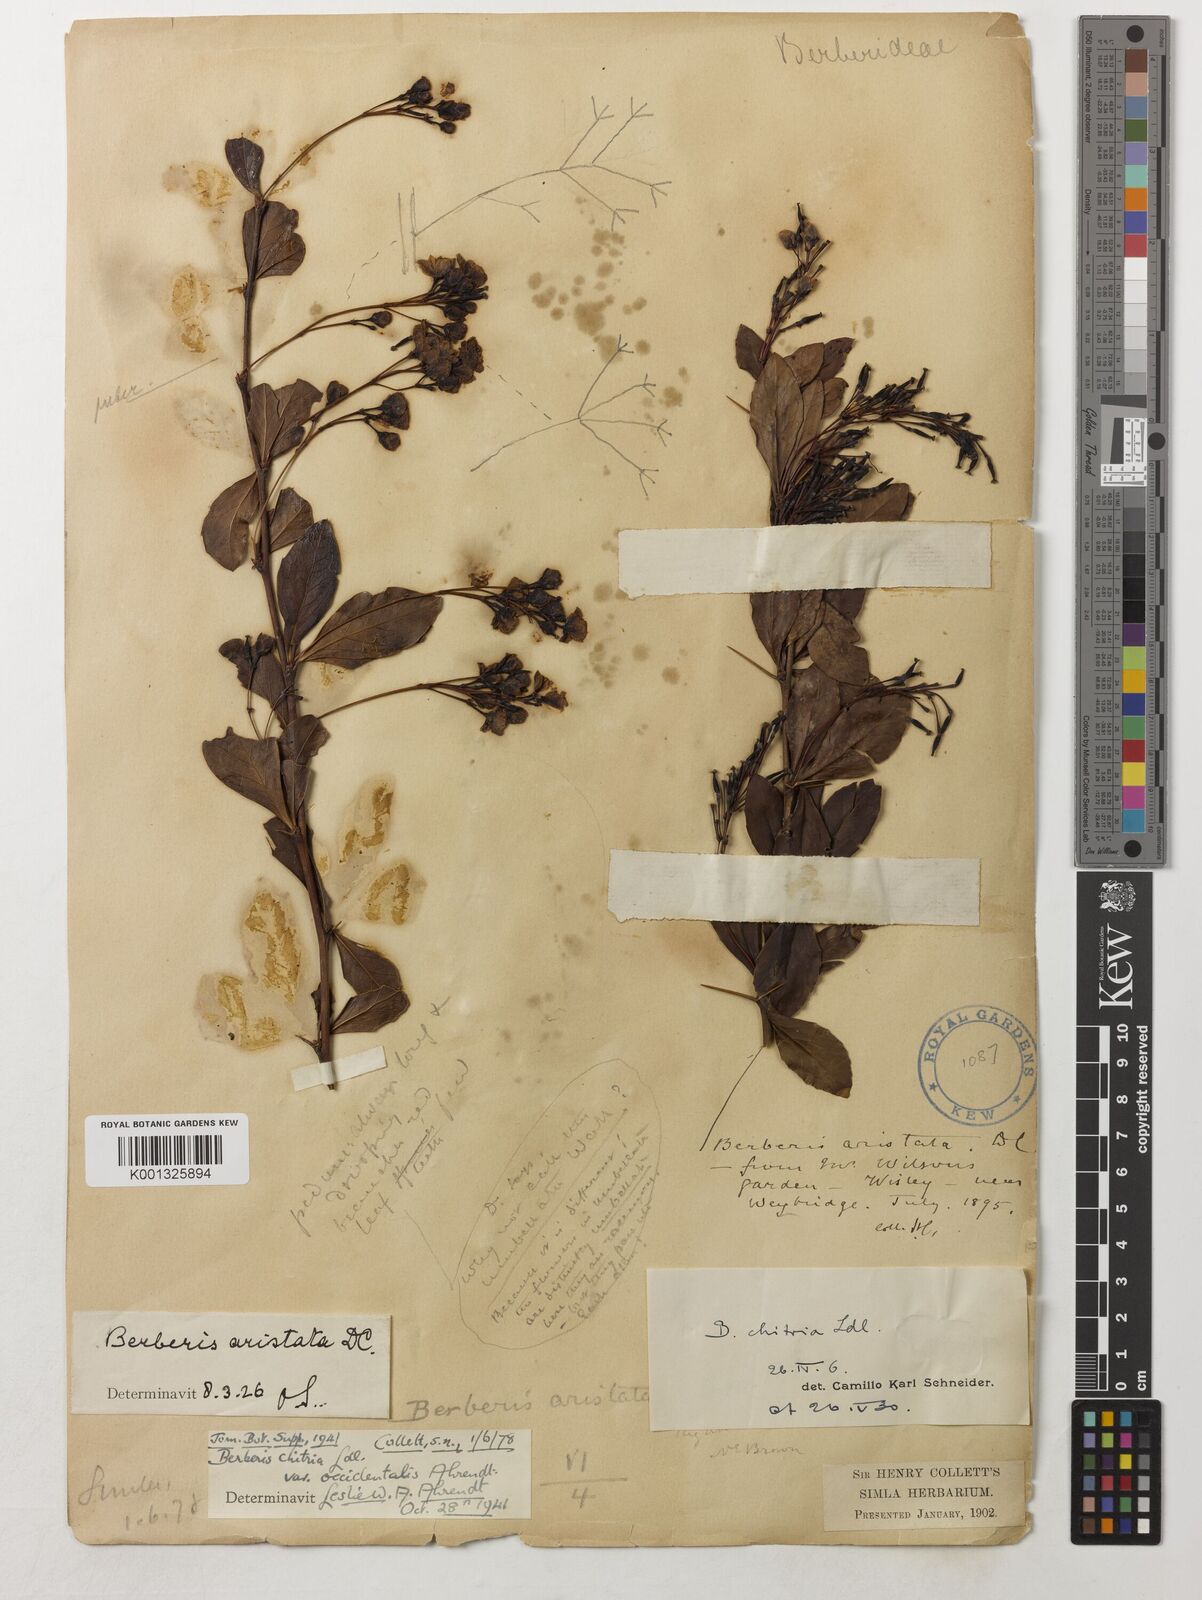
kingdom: Plantae
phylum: Tracheophyta
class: Magnoliopsida
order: Ranunculales
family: Berberidaceae
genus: Berberis
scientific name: Berberis chitria
